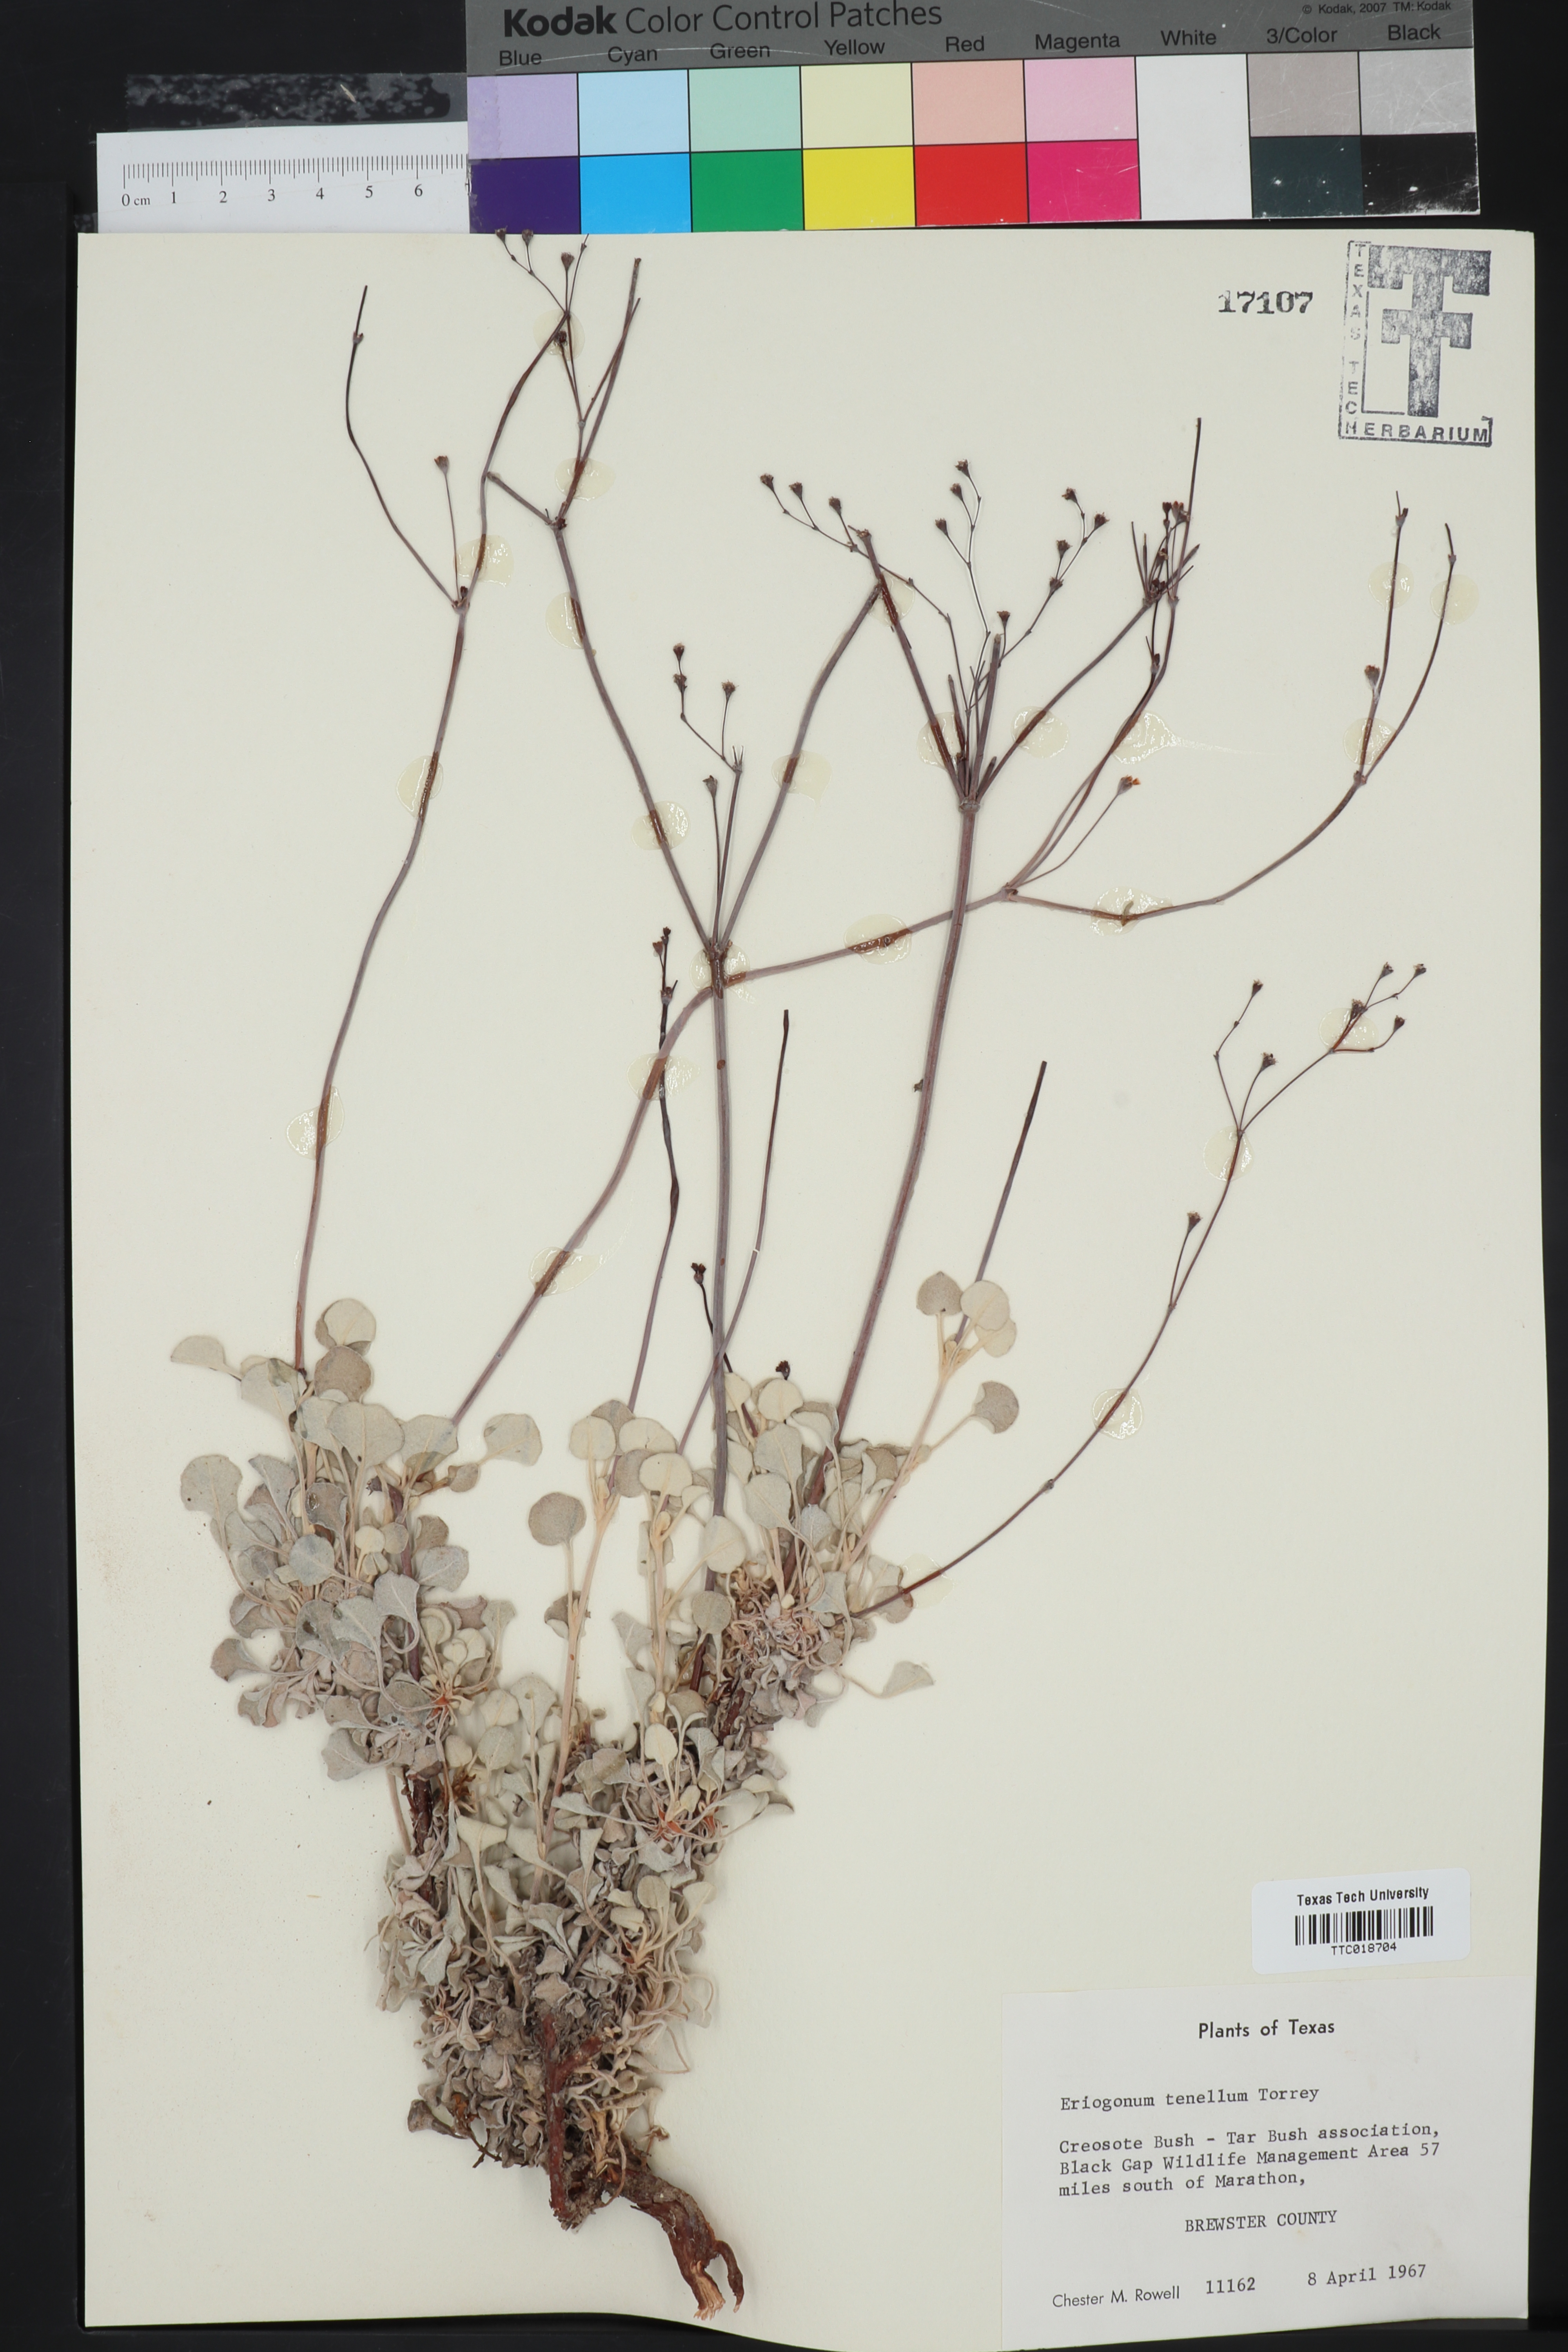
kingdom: Plantae
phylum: Tracheophyta
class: Magnoliopsida
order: Caryophyllales
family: Polygonaceae
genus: Eriogonum
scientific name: Eriogonum tenellum
